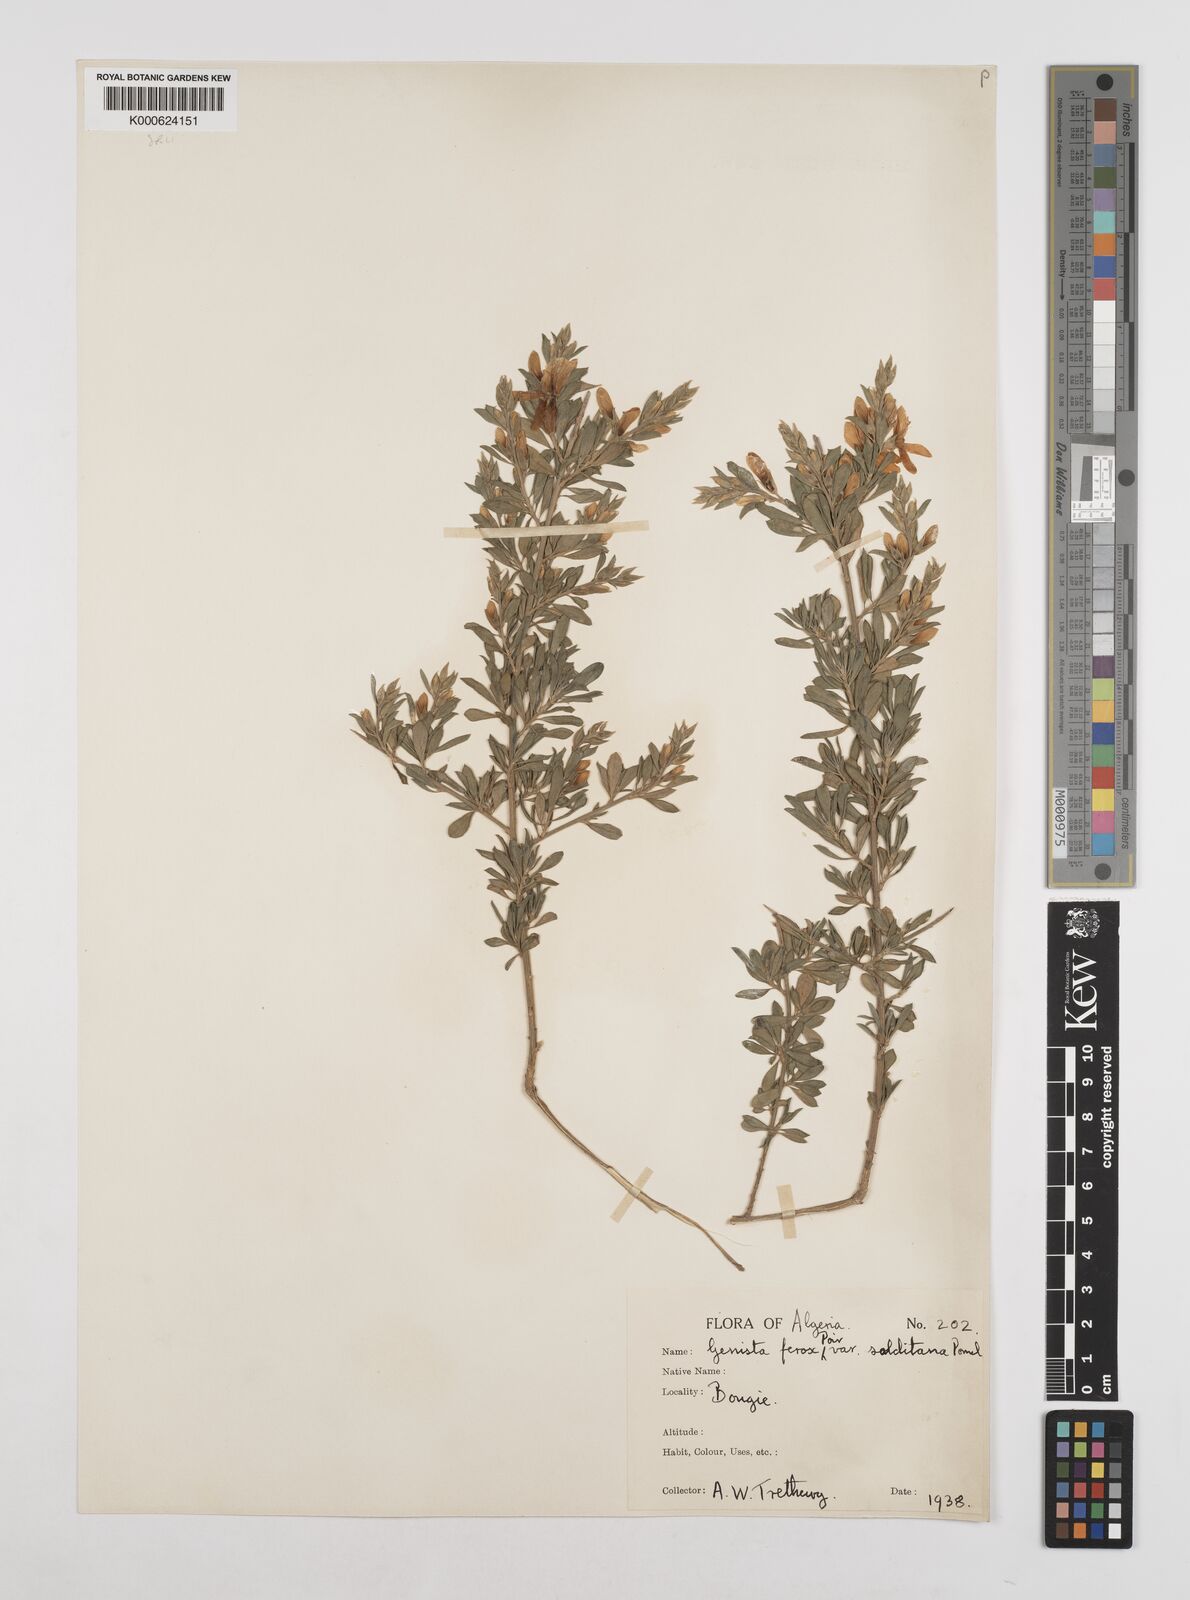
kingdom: Plantae
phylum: Tracheophyta
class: Magnoliopsida
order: Fabales
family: Fabaceae
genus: Genista
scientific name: Genista
